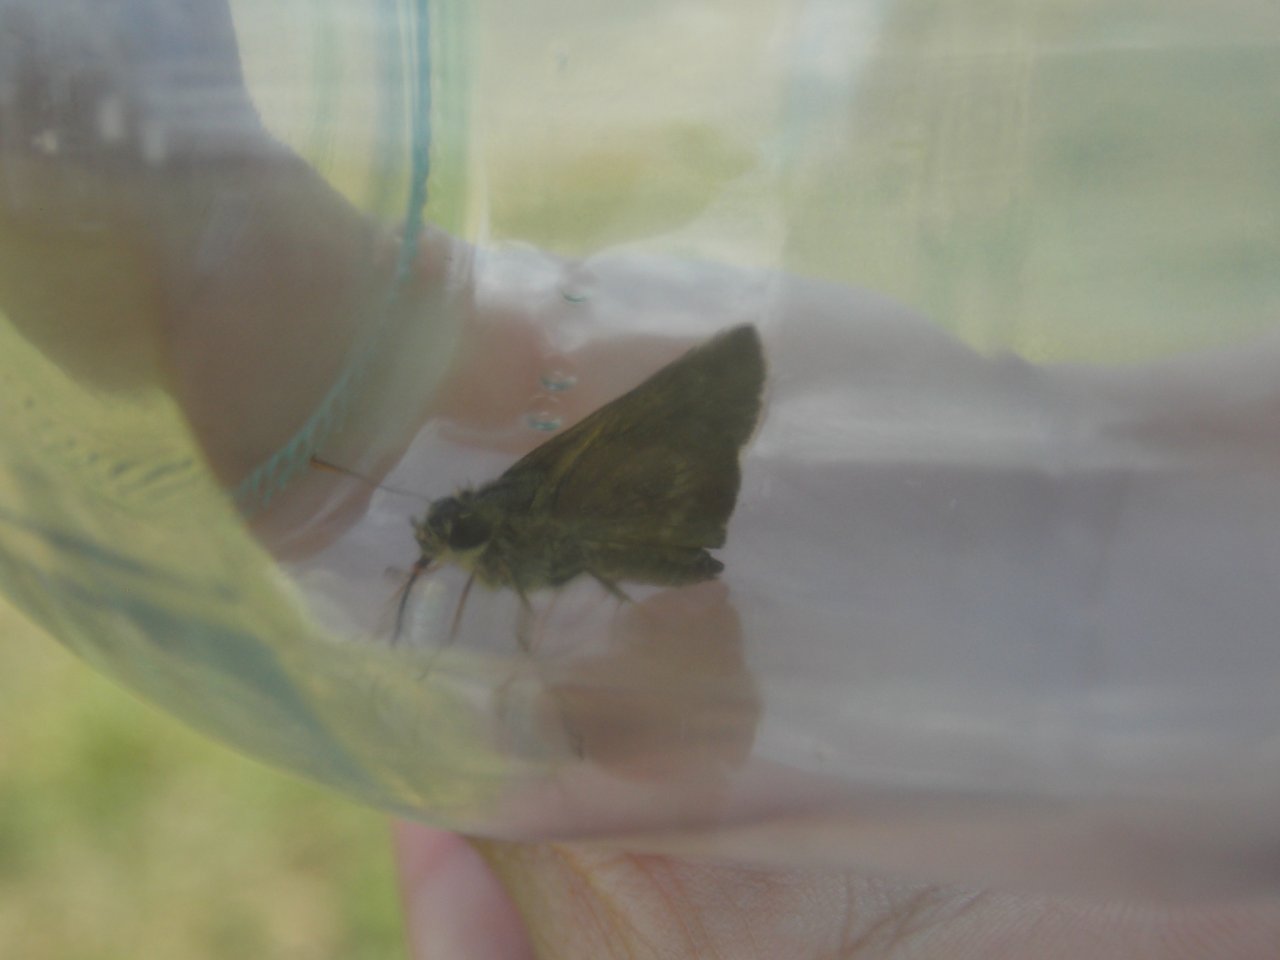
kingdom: Animalia
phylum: Arthropoda
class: Insecta
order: Lepidoptera
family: Hesperiidae
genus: Polites
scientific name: Polites egeremet
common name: Northern Broken-Dash
